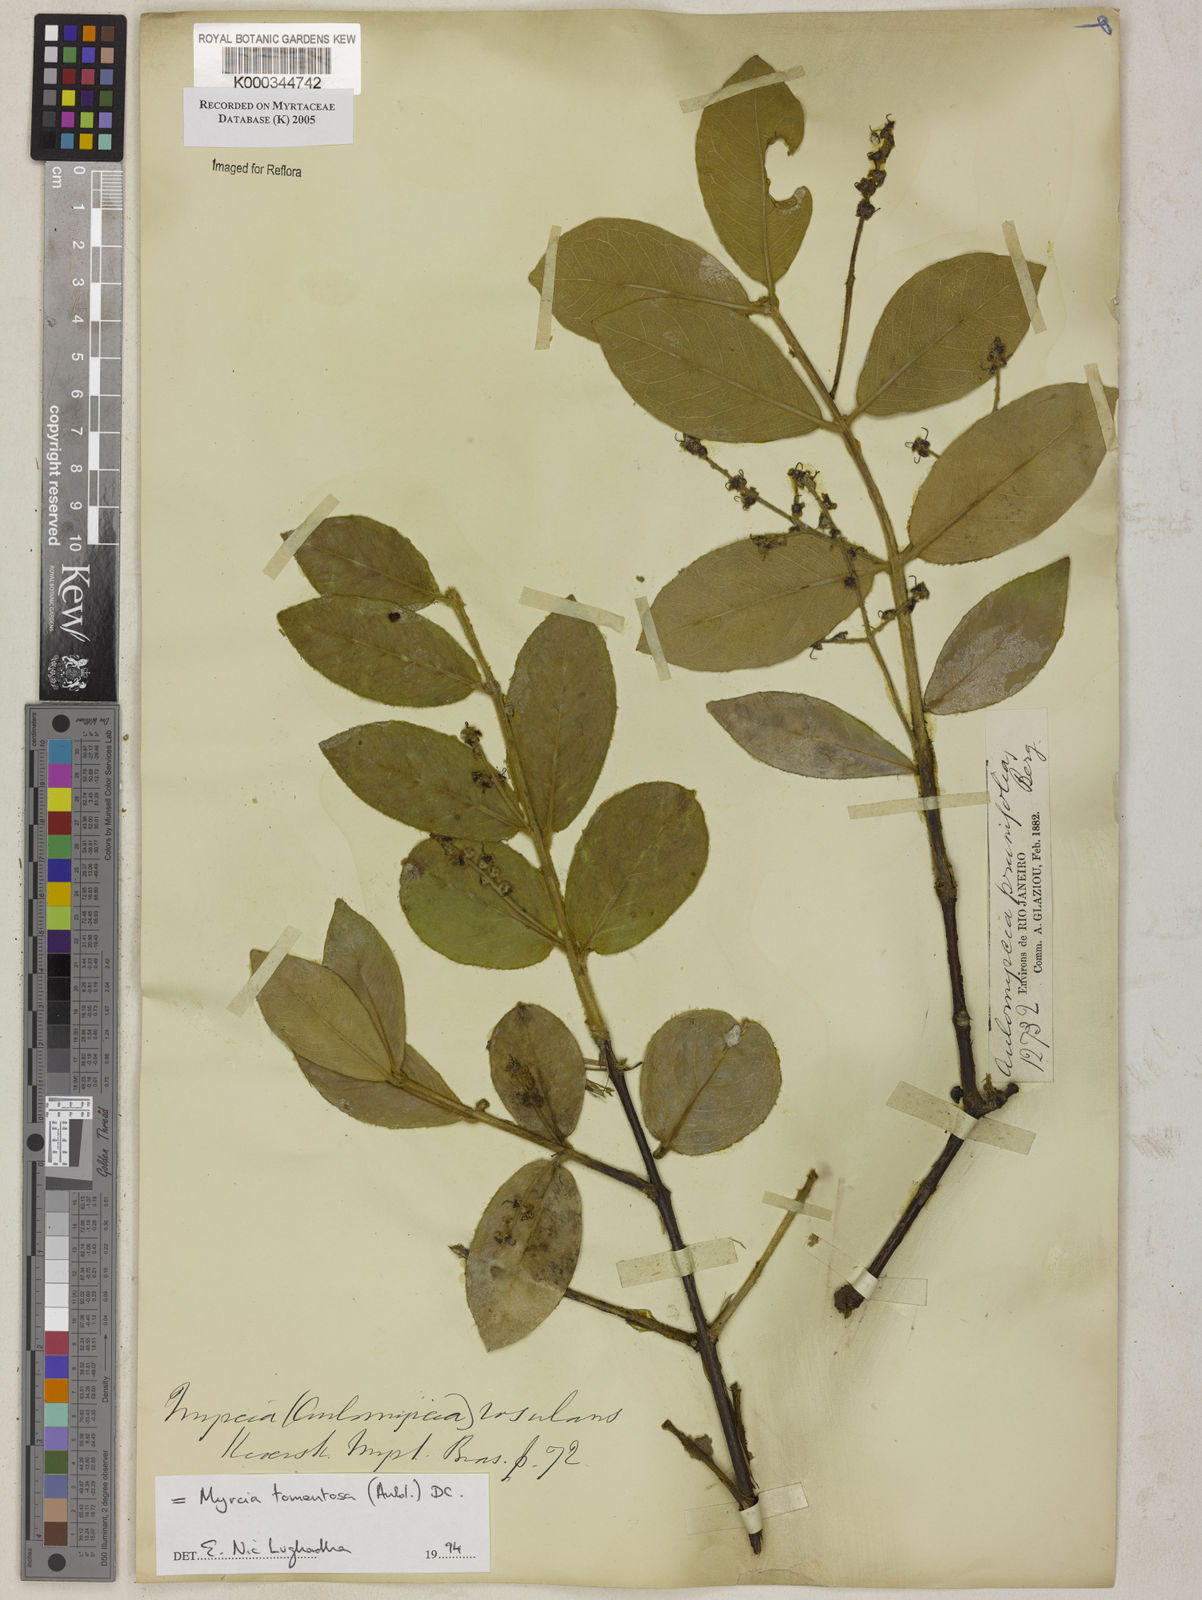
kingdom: Plantae
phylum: Tracheophyta
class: Magnoliopsida
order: Myrtales
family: Myrtaceae
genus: Myrcia
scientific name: Myrcia tomentosa
